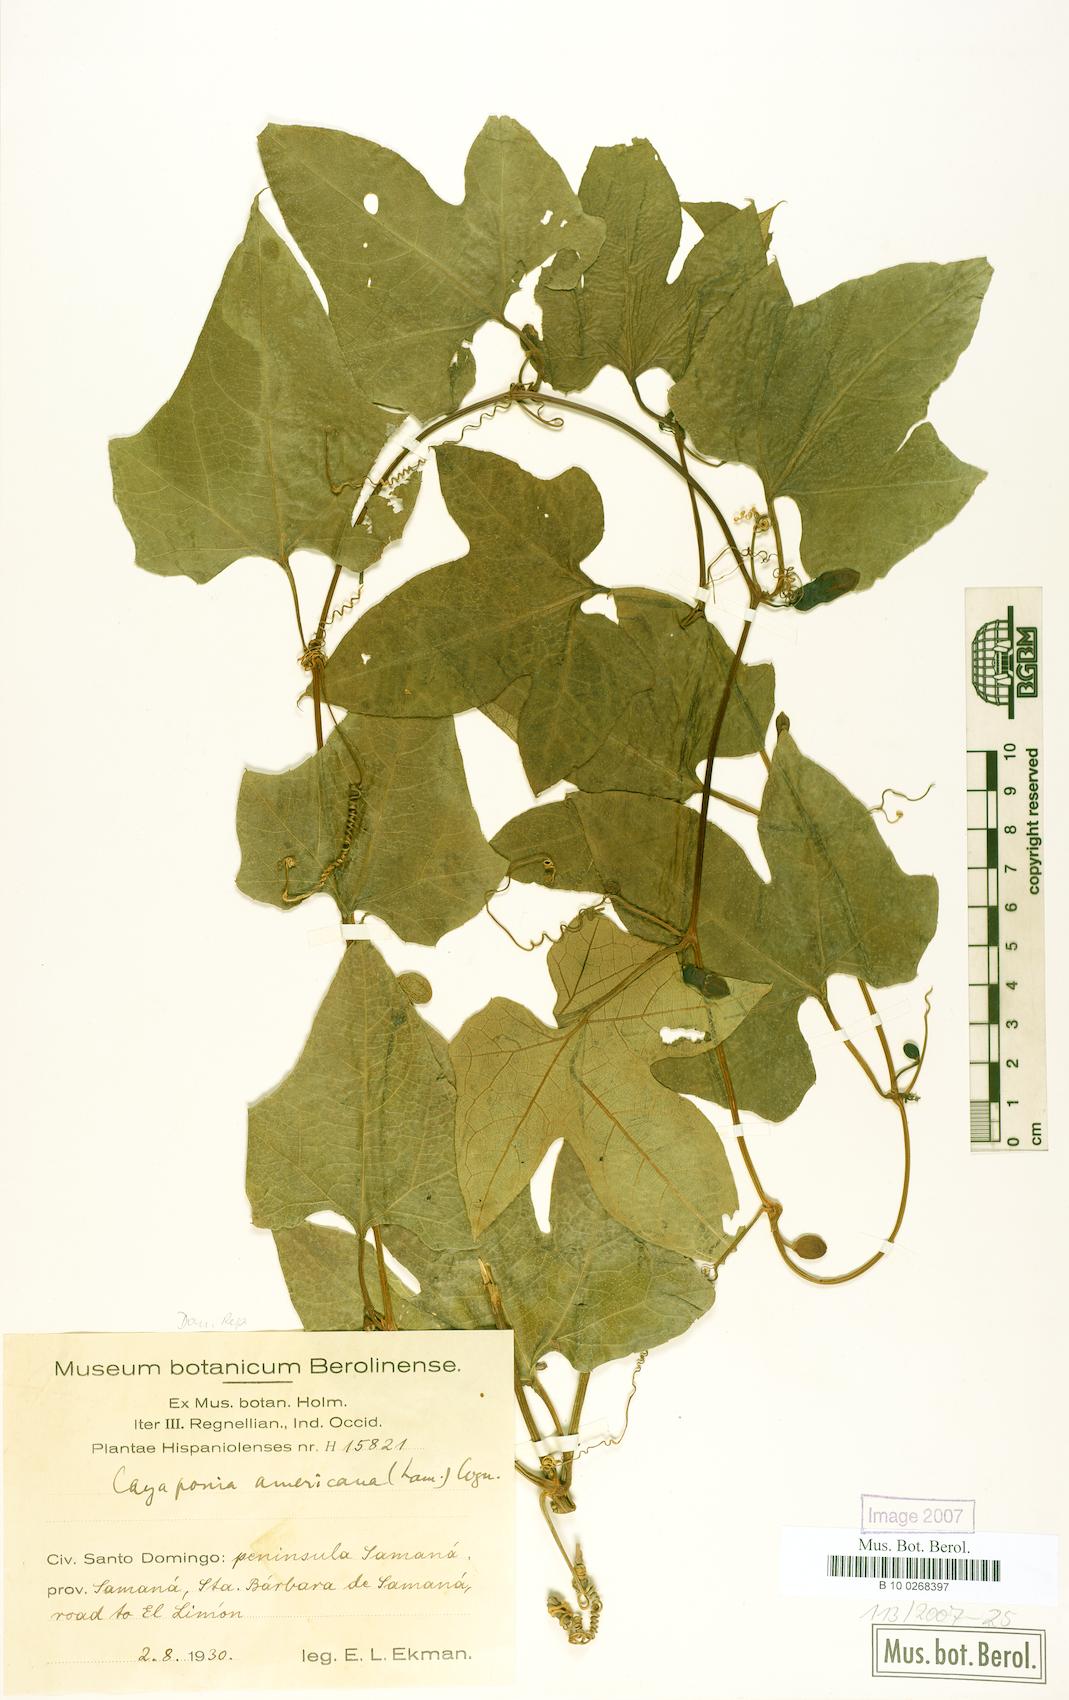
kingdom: Plantae
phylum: Tracheophyta
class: Magnoliopsida
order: Cucurbitales
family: Cucurbitaceae
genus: Cayaponia
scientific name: Cayaponia americana
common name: American melonleaf
